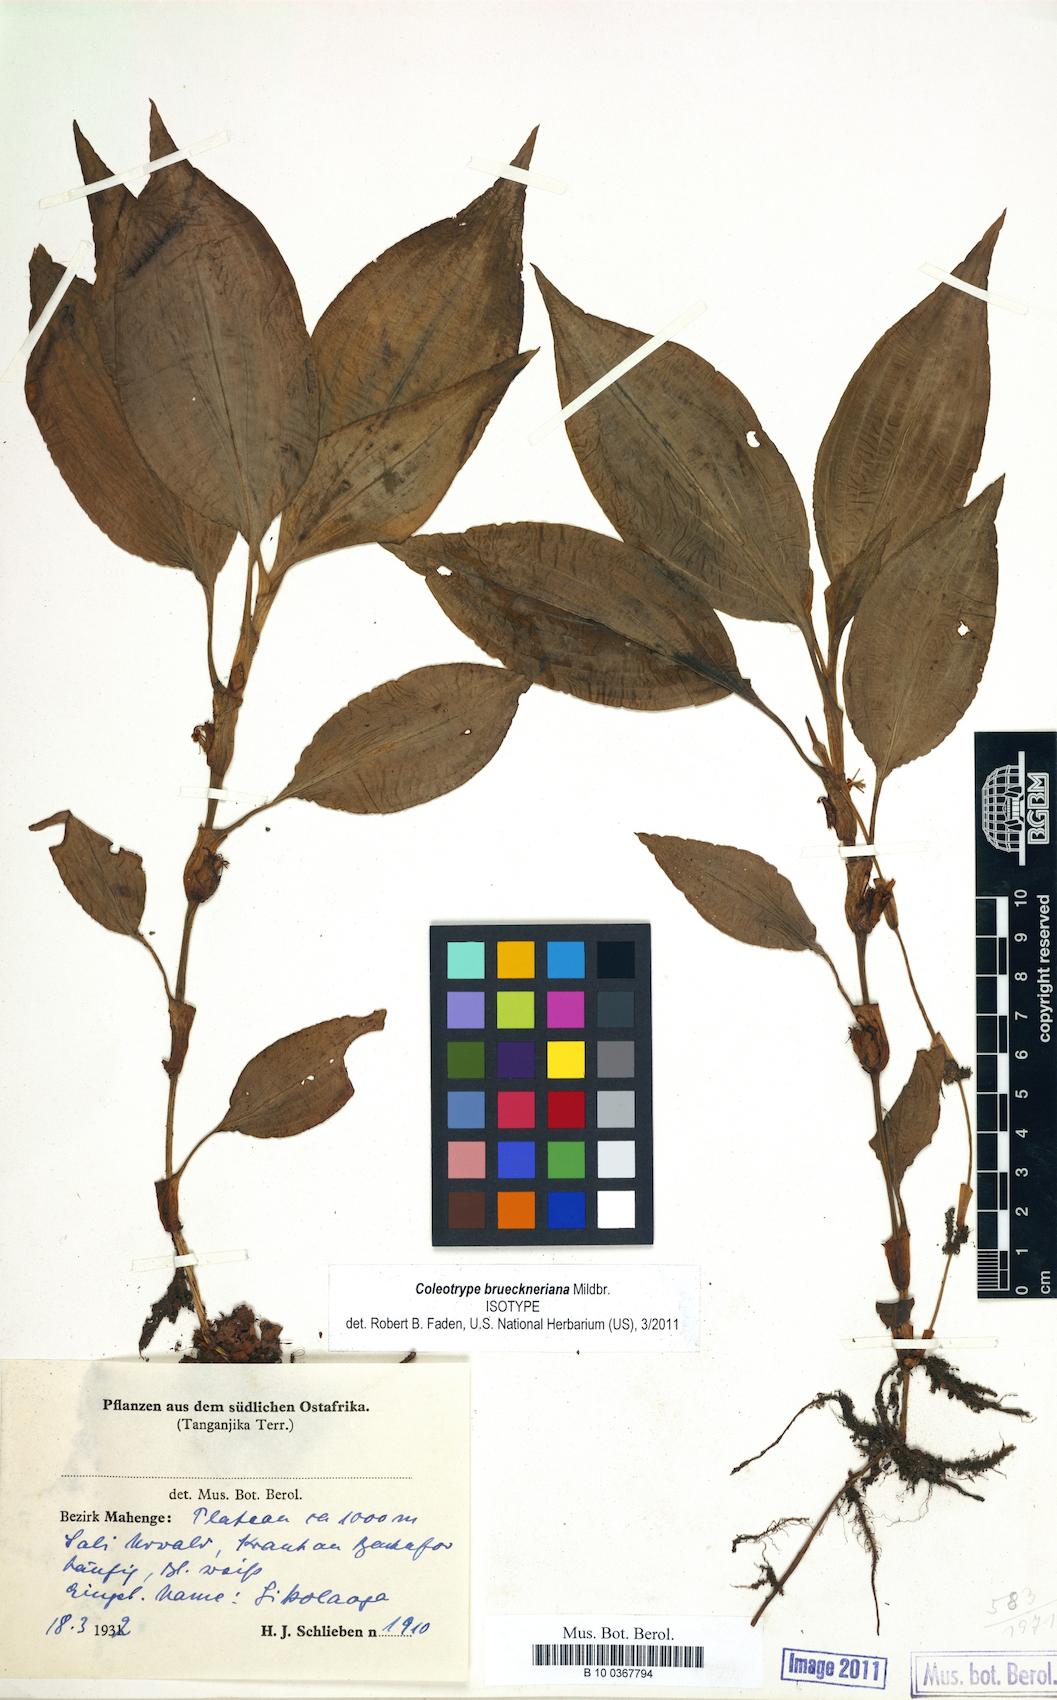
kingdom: Plantae
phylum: Tracheophyta
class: Liliopsida
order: Commelinales
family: Commelinaceae
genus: Coleotrype
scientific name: Coleotrype brueckneriana
